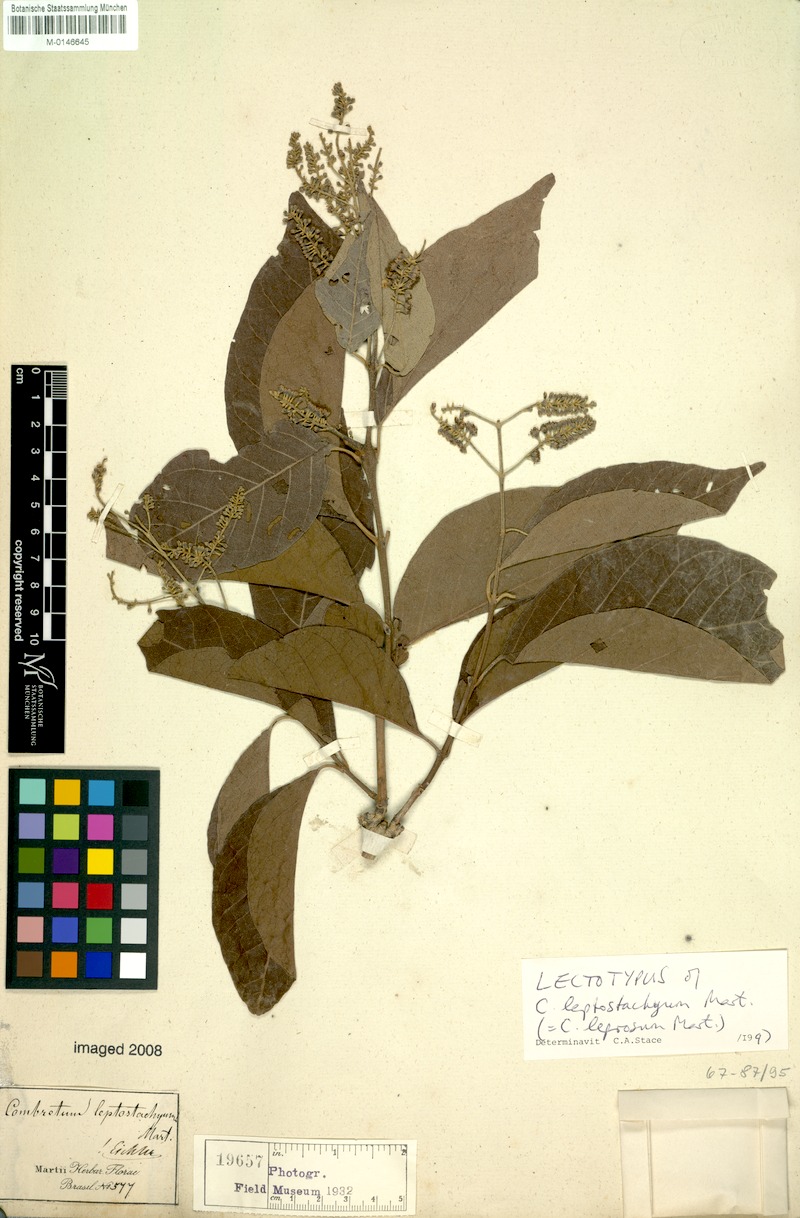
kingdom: Plantae
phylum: Tracheophyta
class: Magnoliopsida
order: Myrtales
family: Combretaceae
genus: Combretum
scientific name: Combretum leprosum
